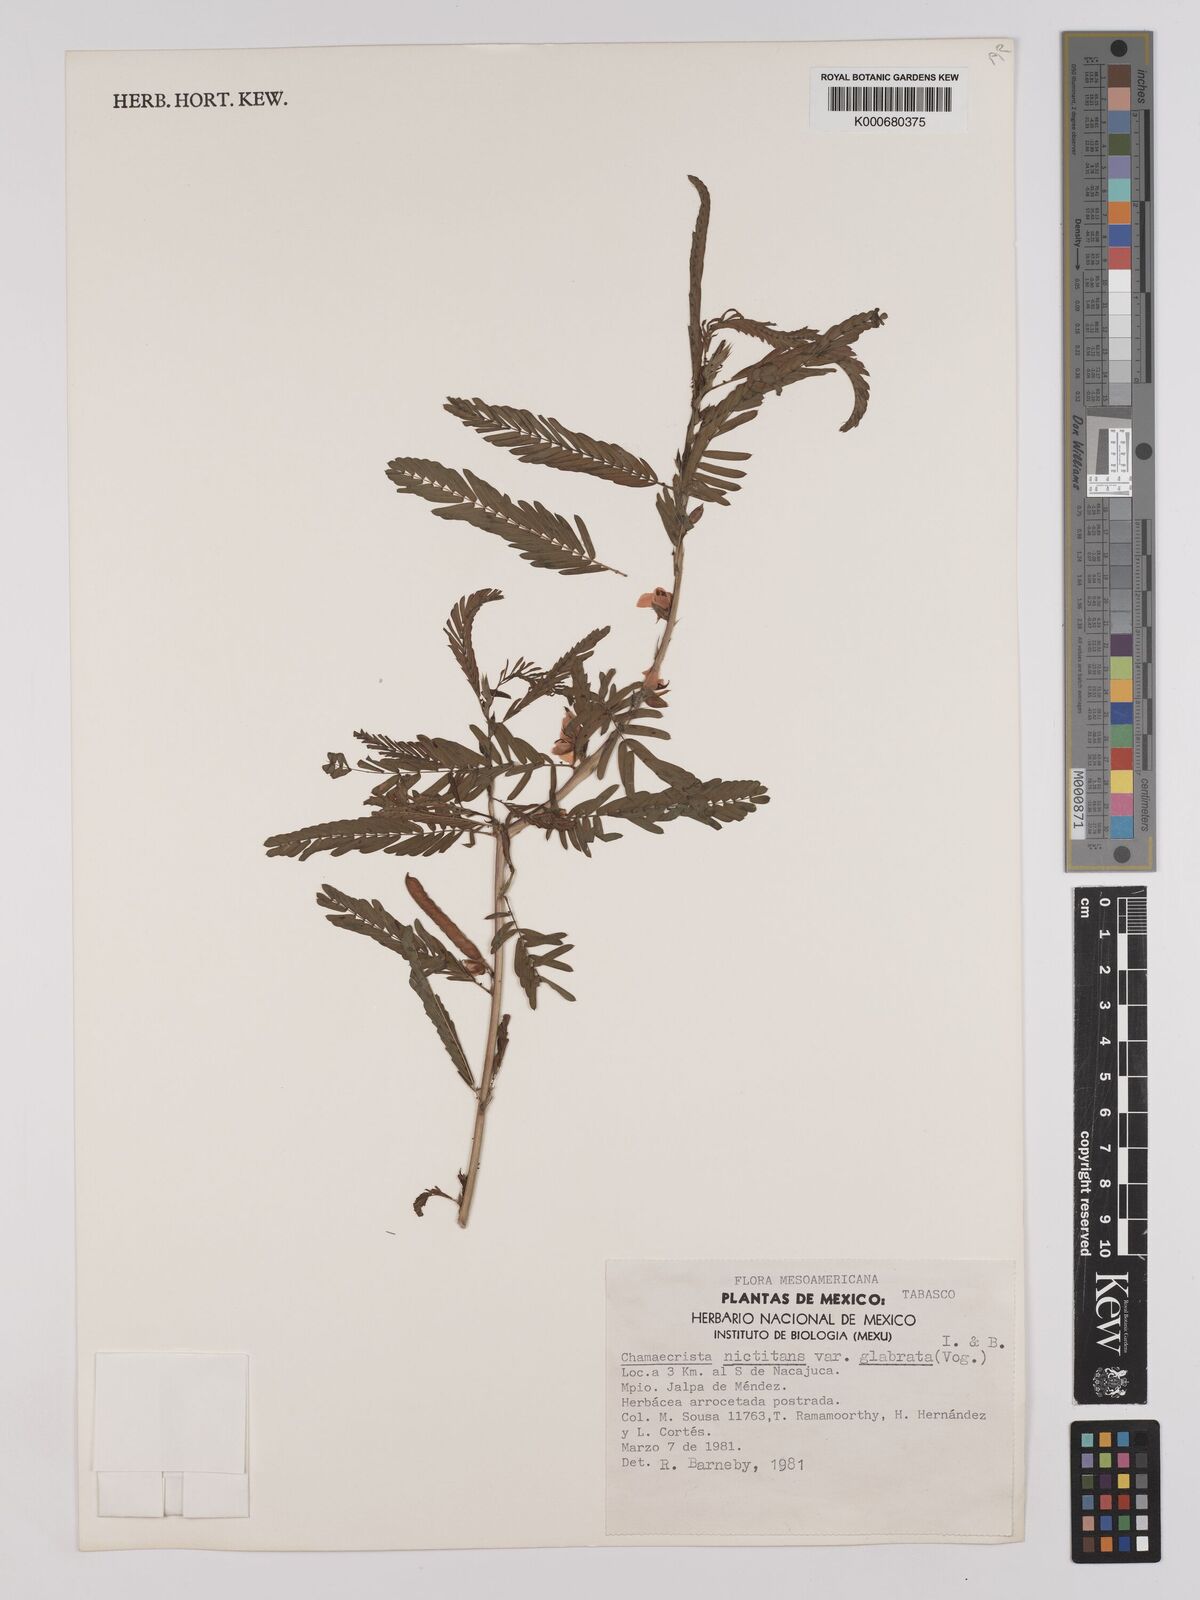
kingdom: Plantae
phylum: Tracheophyta
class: Magnoliopsida
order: Fabales
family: Fabaceae
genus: Chamaecrista
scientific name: Chamaecrista nictitans
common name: Sensitive cassia
